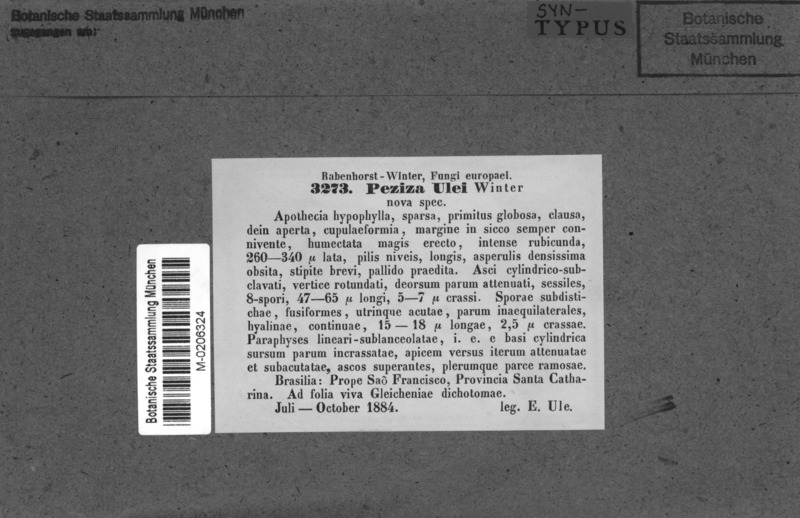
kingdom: Fungi
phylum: Ascomycota
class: Leotiomycetes
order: Helotiales
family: Lachnaceae
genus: Lachnum
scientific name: Lachnum ulei
